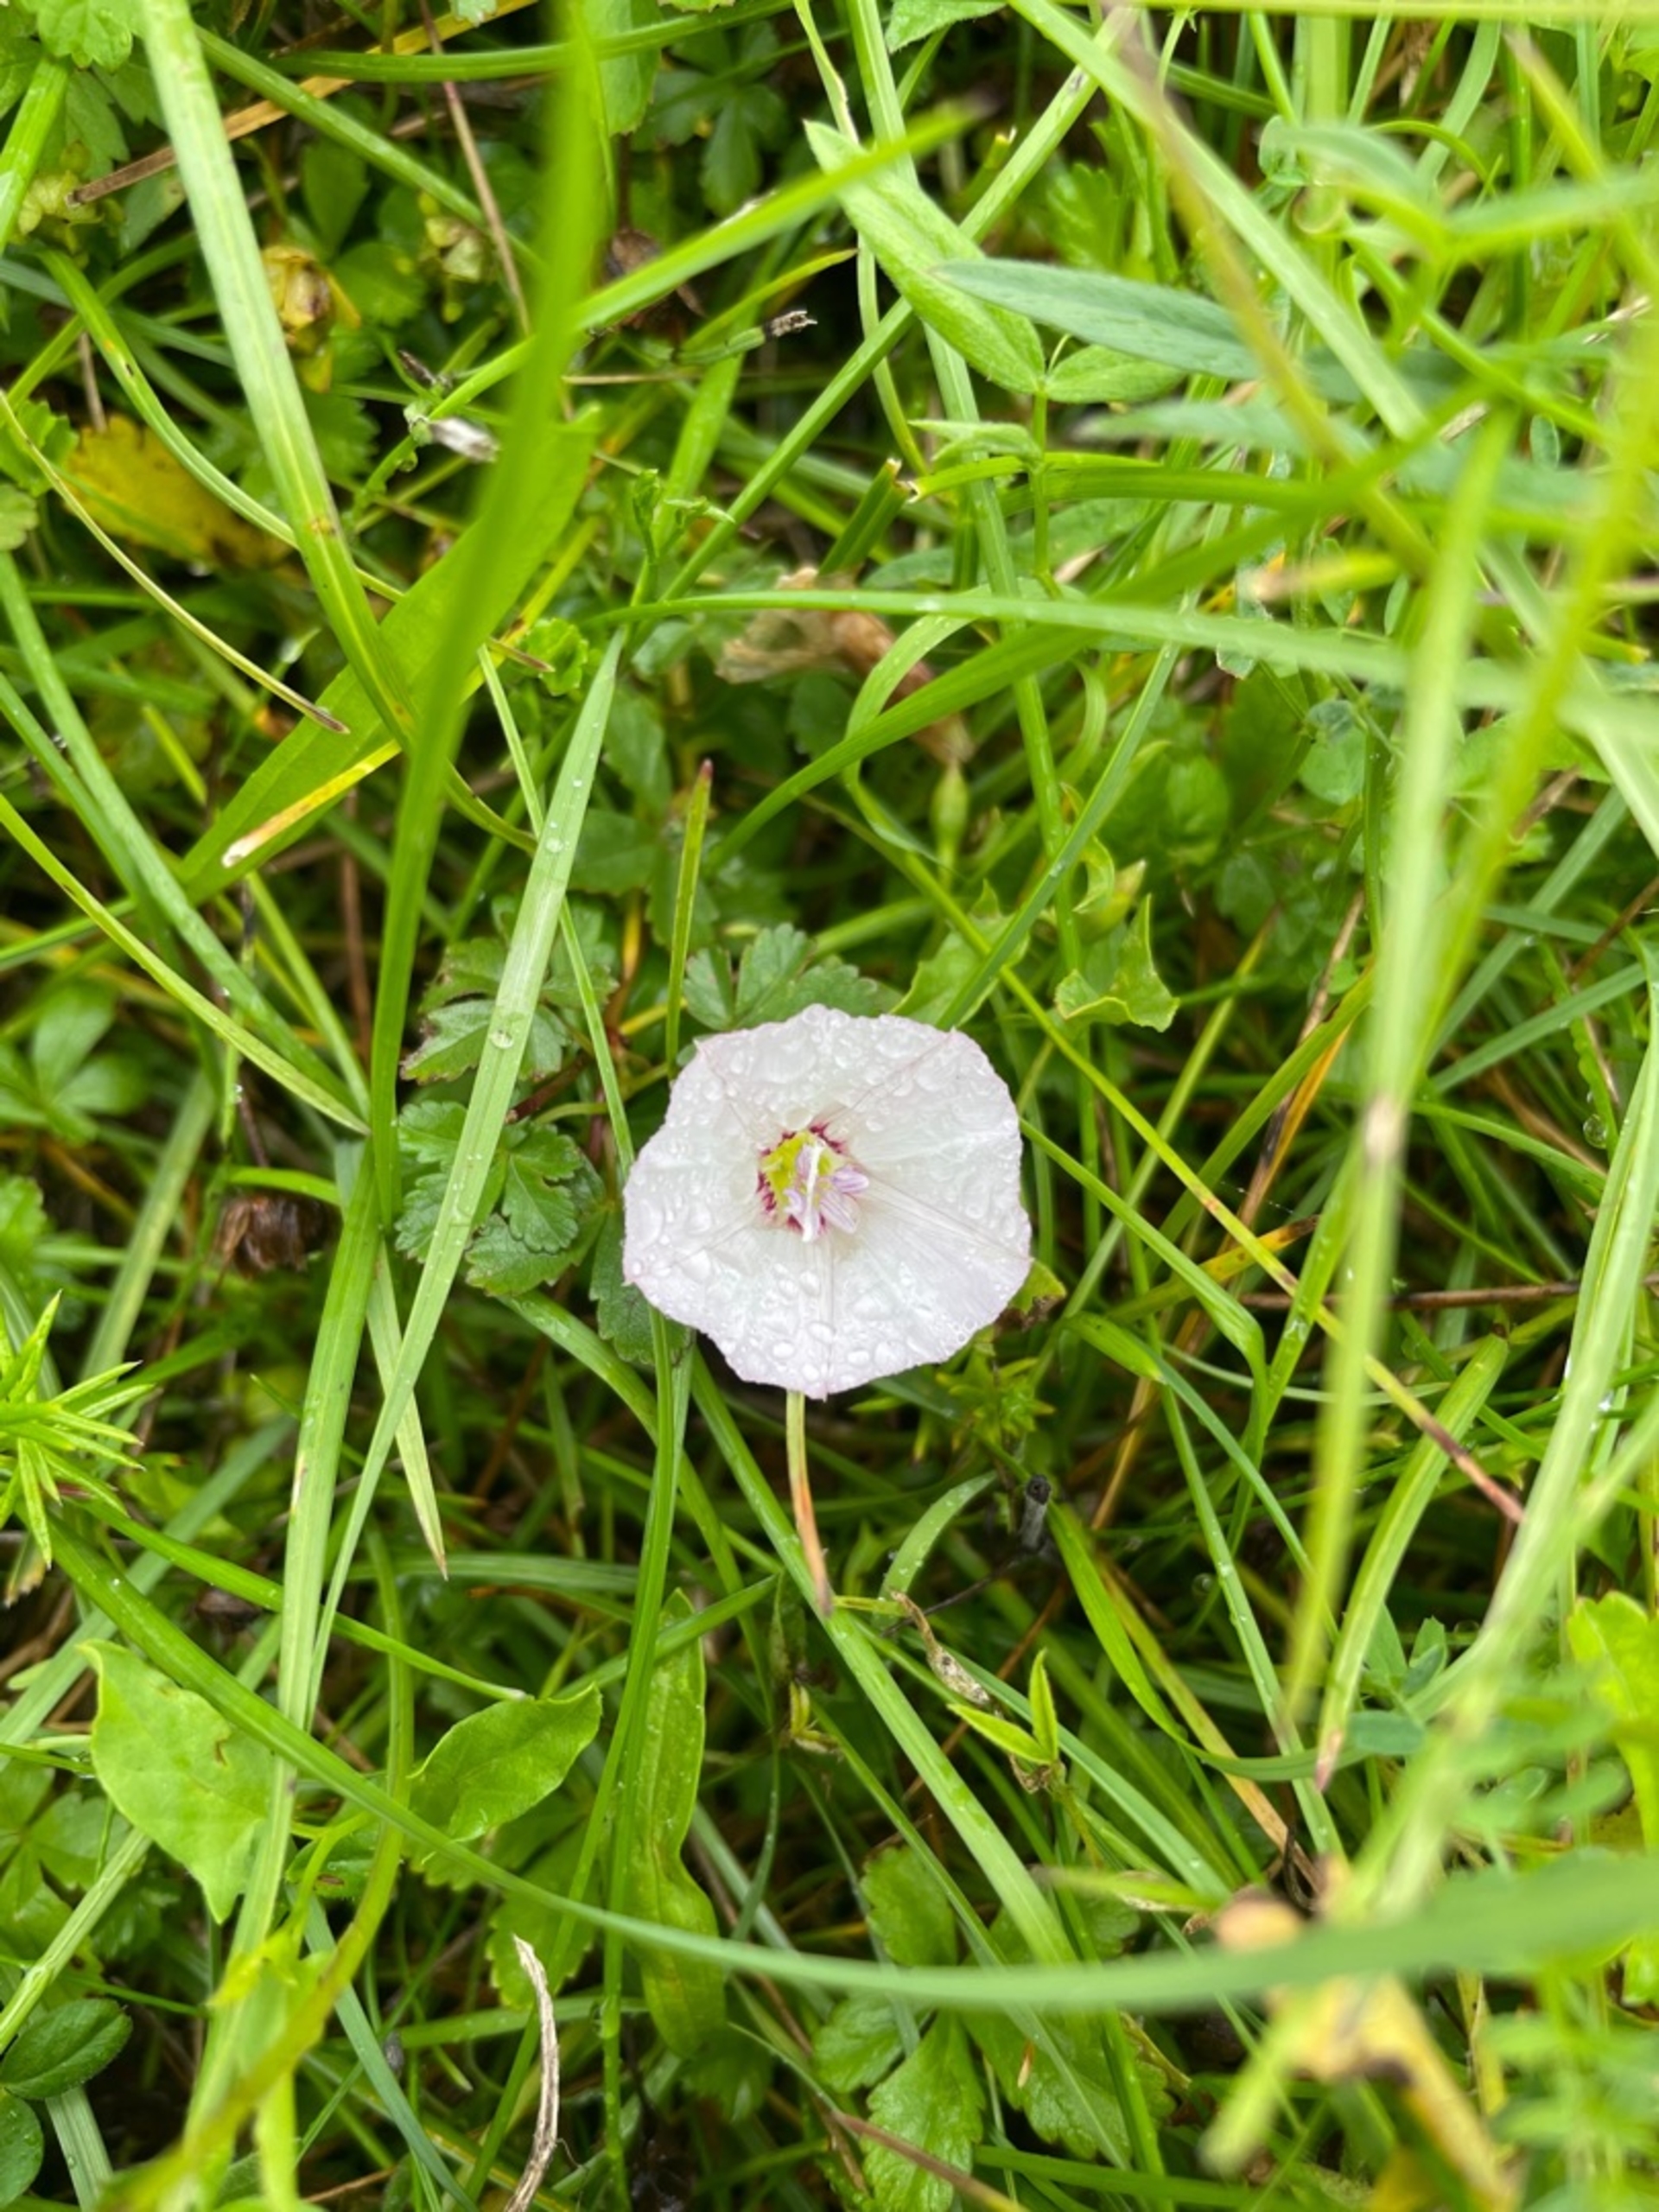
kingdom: Plantae
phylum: Tracheophyta
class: Magnoliopsida
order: Solanales
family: Convolvulaceae
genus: Convolvulus
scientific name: Convolvulus arvensis
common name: Ager-snerle
